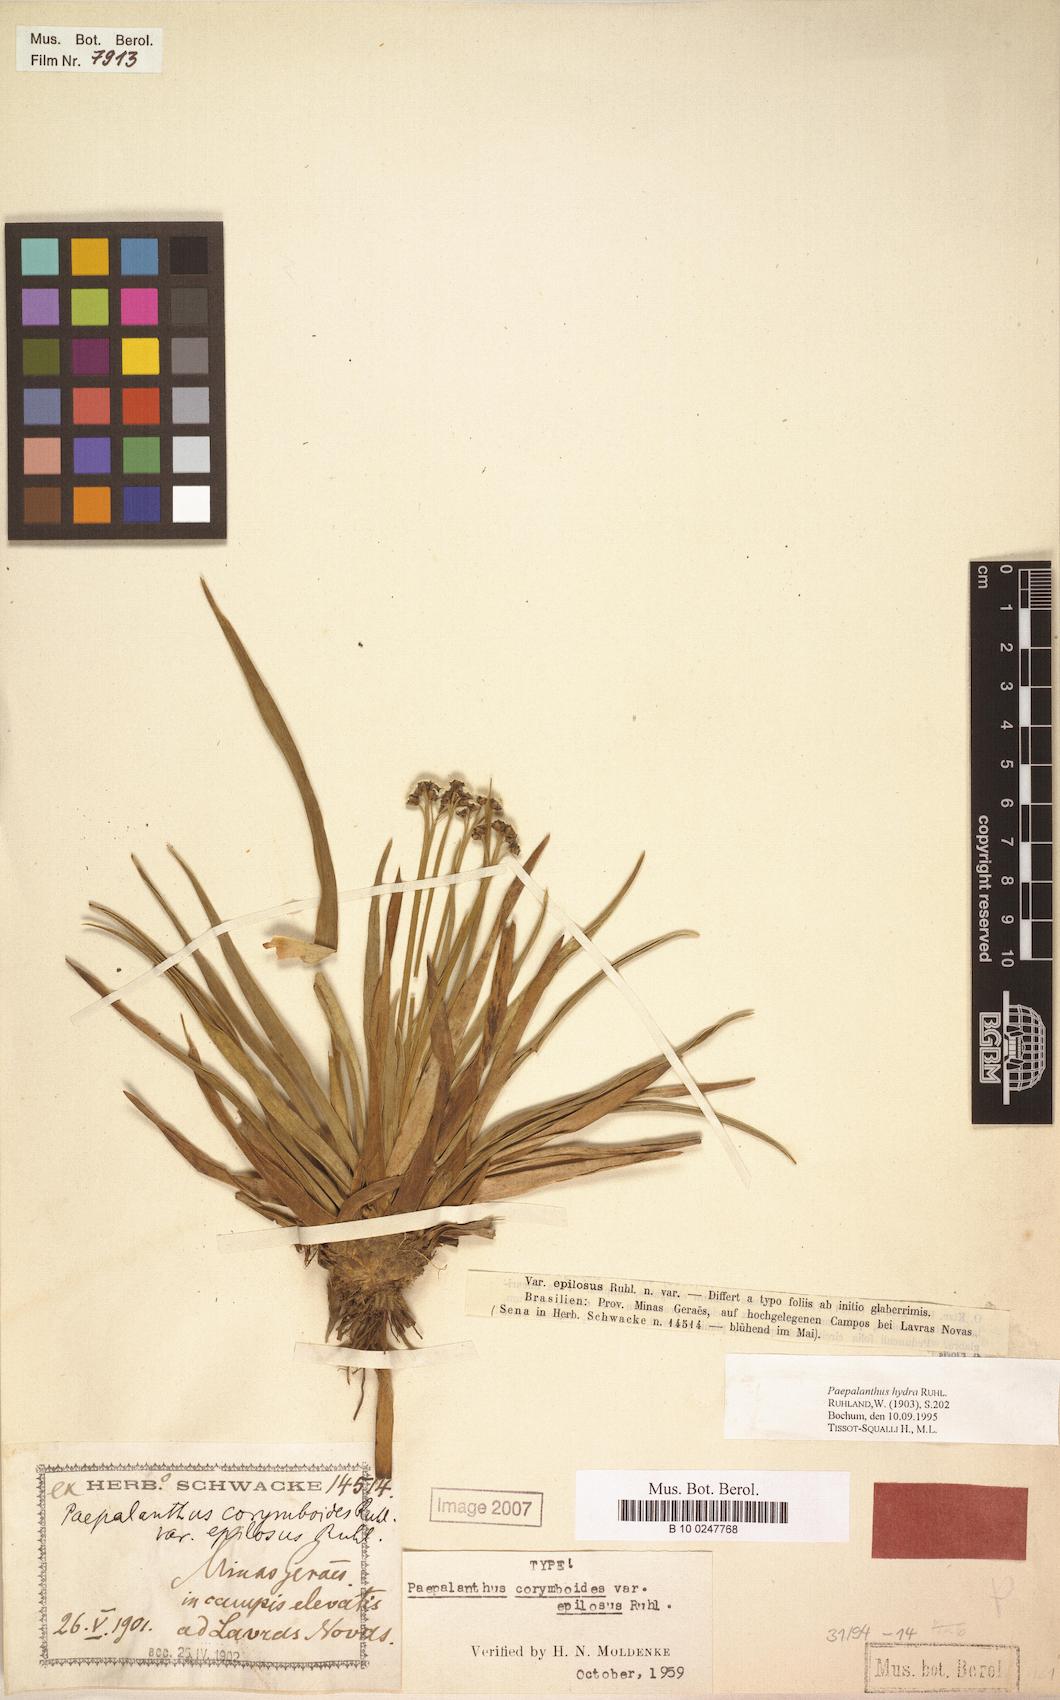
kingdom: Plantae
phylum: Tracheophyta
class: Liliopsida
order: Poales
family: Eriocaulaceae
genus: Paepalanthus
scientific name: Paepalanthus hydra
